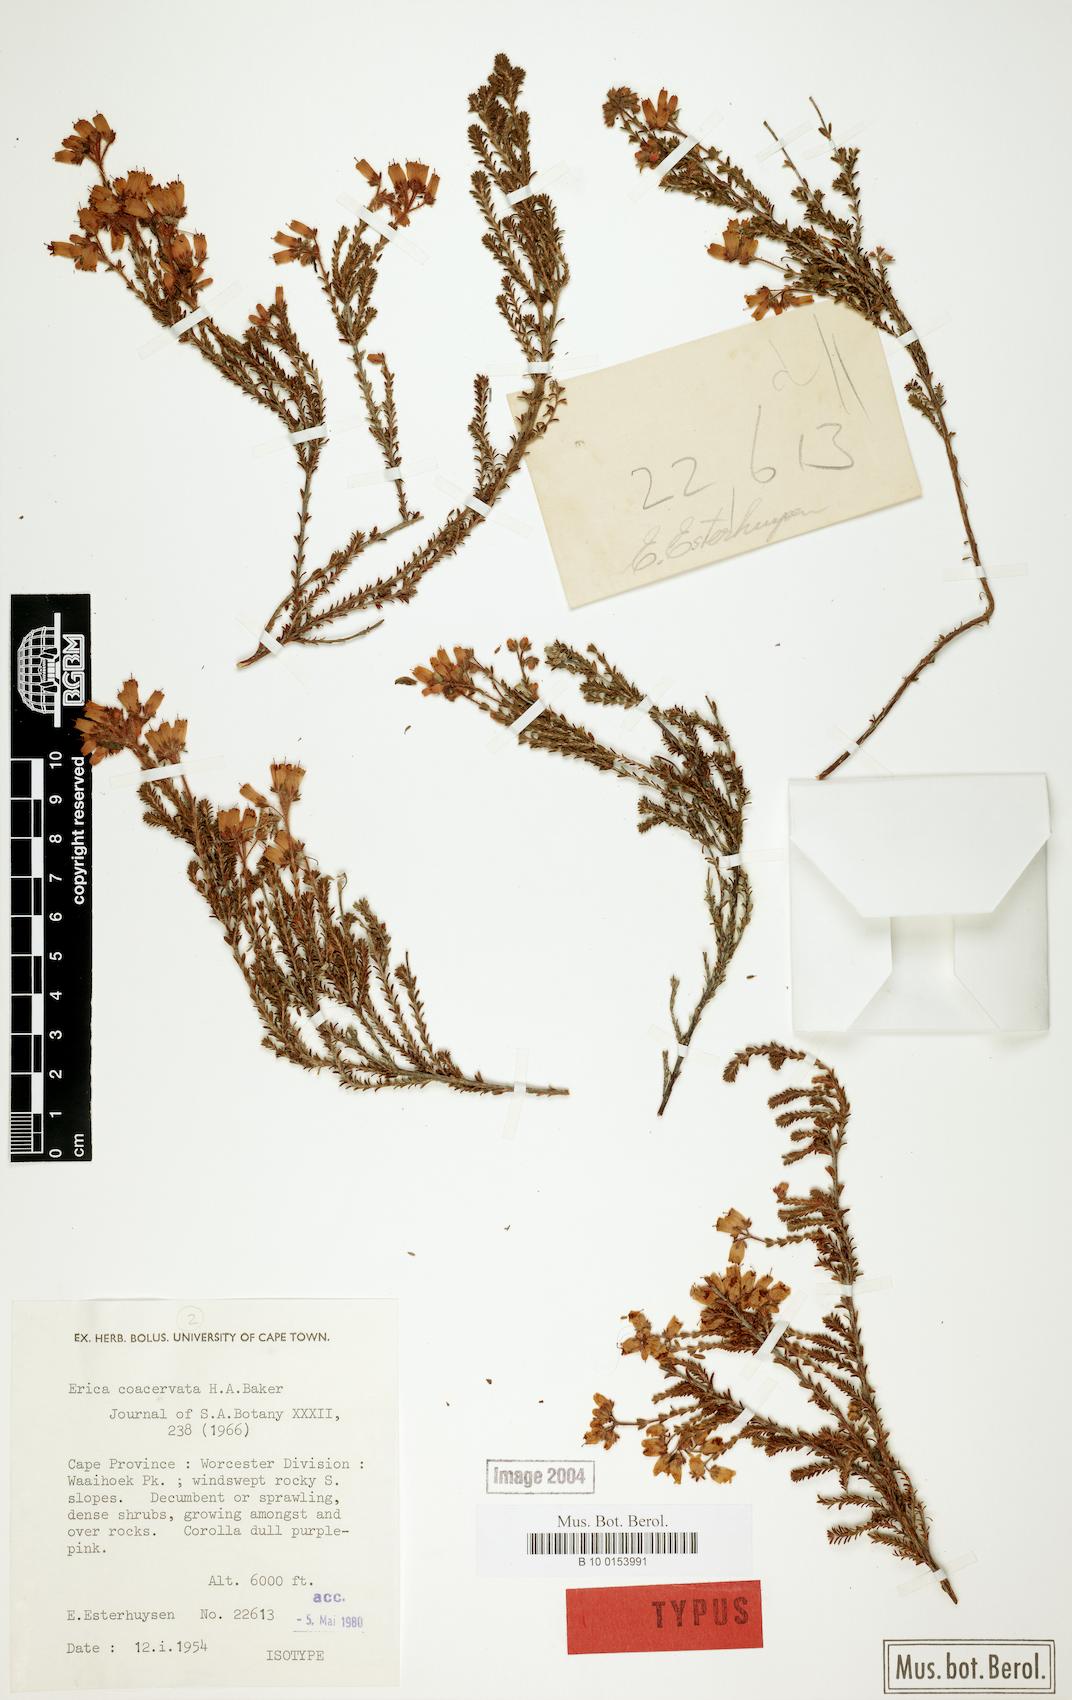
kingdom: Plantae
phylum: Tracheophyta
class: Magnoliopsida
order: Ericales
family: Ericaceae
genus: Erica
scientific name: Erica coacervata
